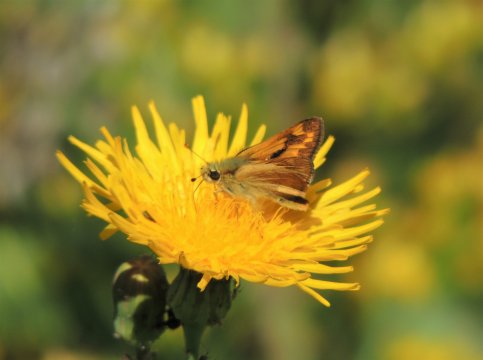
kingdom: Animalia
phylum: Arthropoda
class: Insecta
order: Lepidoptera
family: Hesperiidae
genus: Ochlodes
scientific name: Ochlodes sylvanoides
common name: Woodland Skipper
